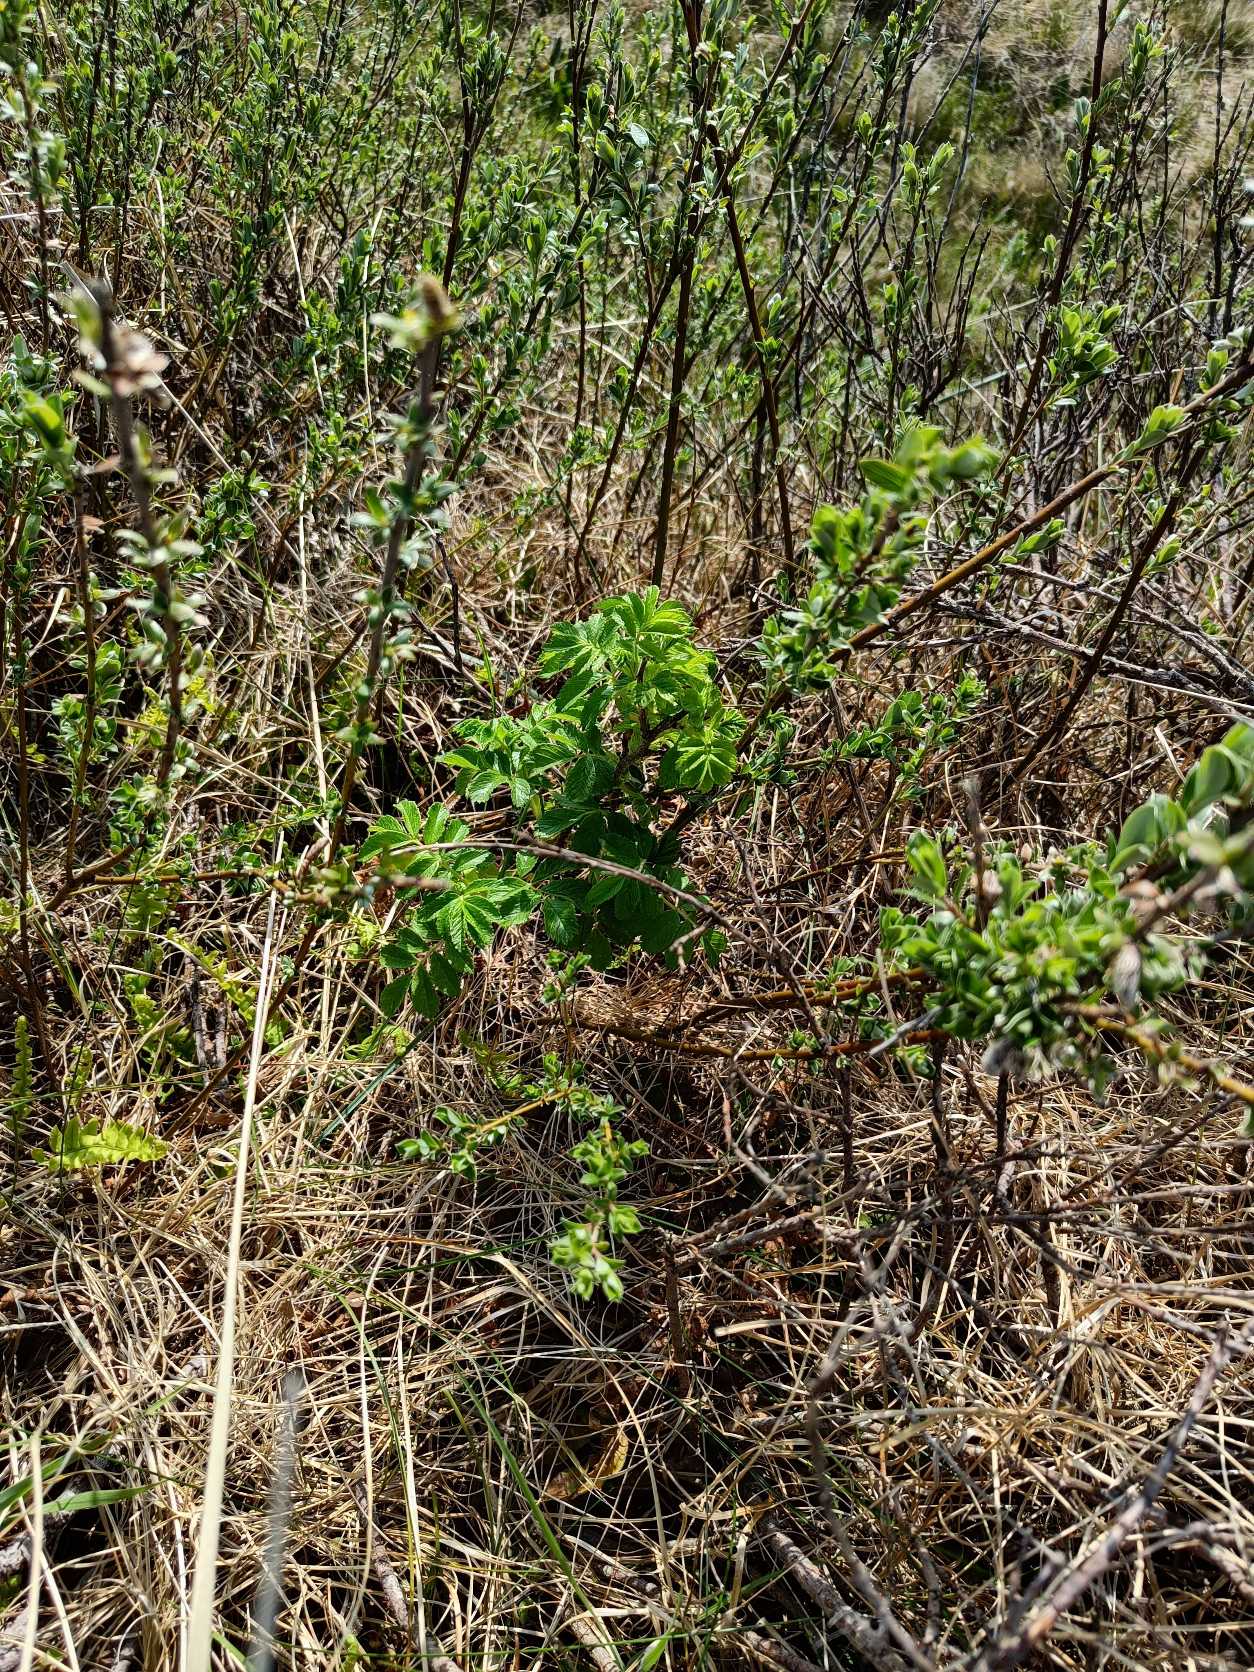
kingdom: Plantae
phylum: Tracheophyta
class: Magnoliopsida
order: Rosales
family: Rosaceae
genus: Rosa
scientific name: Rosa rugosa
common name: Rynket rose
